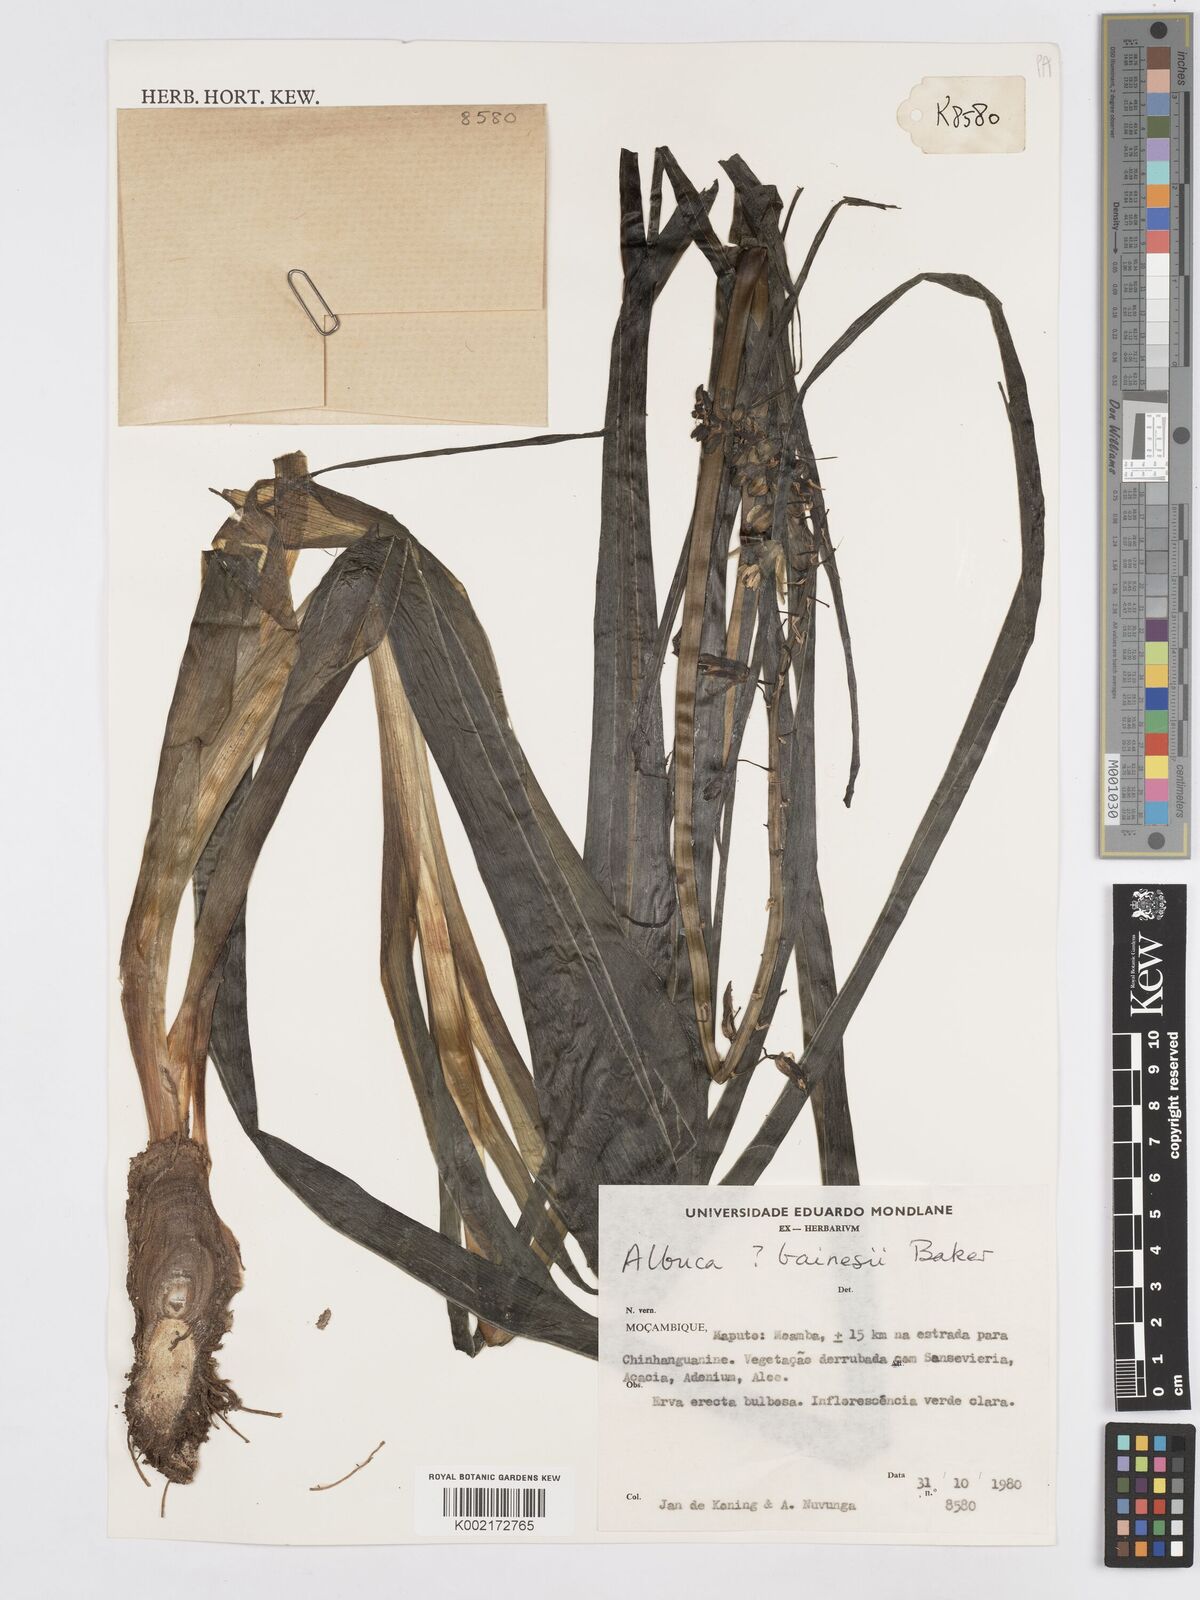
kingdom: Plantae
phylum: Tracheophyta
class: Liliopsida
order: Asparagales
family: Asparagaceae
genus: Albuca
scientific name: Albuca abyssinica
